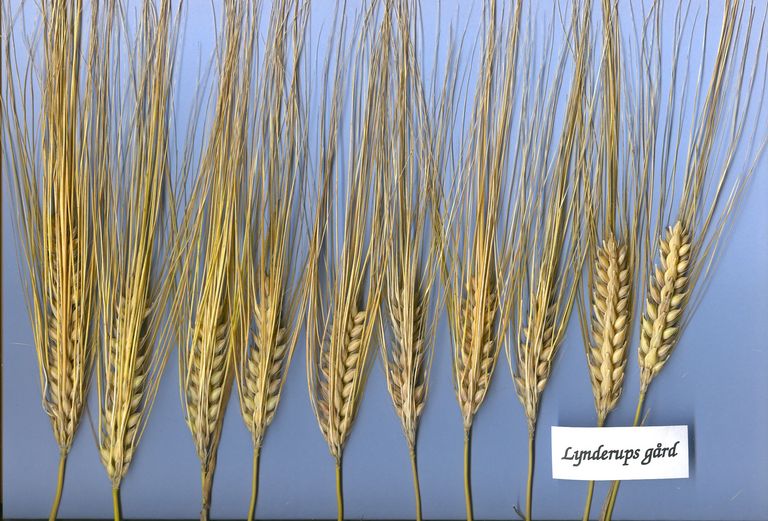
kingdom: Plantae
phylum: Tracheophyta
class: Liliopsida
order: Poales
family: Poaceae
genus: Hordeum
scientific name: Hordeum vulgare
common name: Common barley
